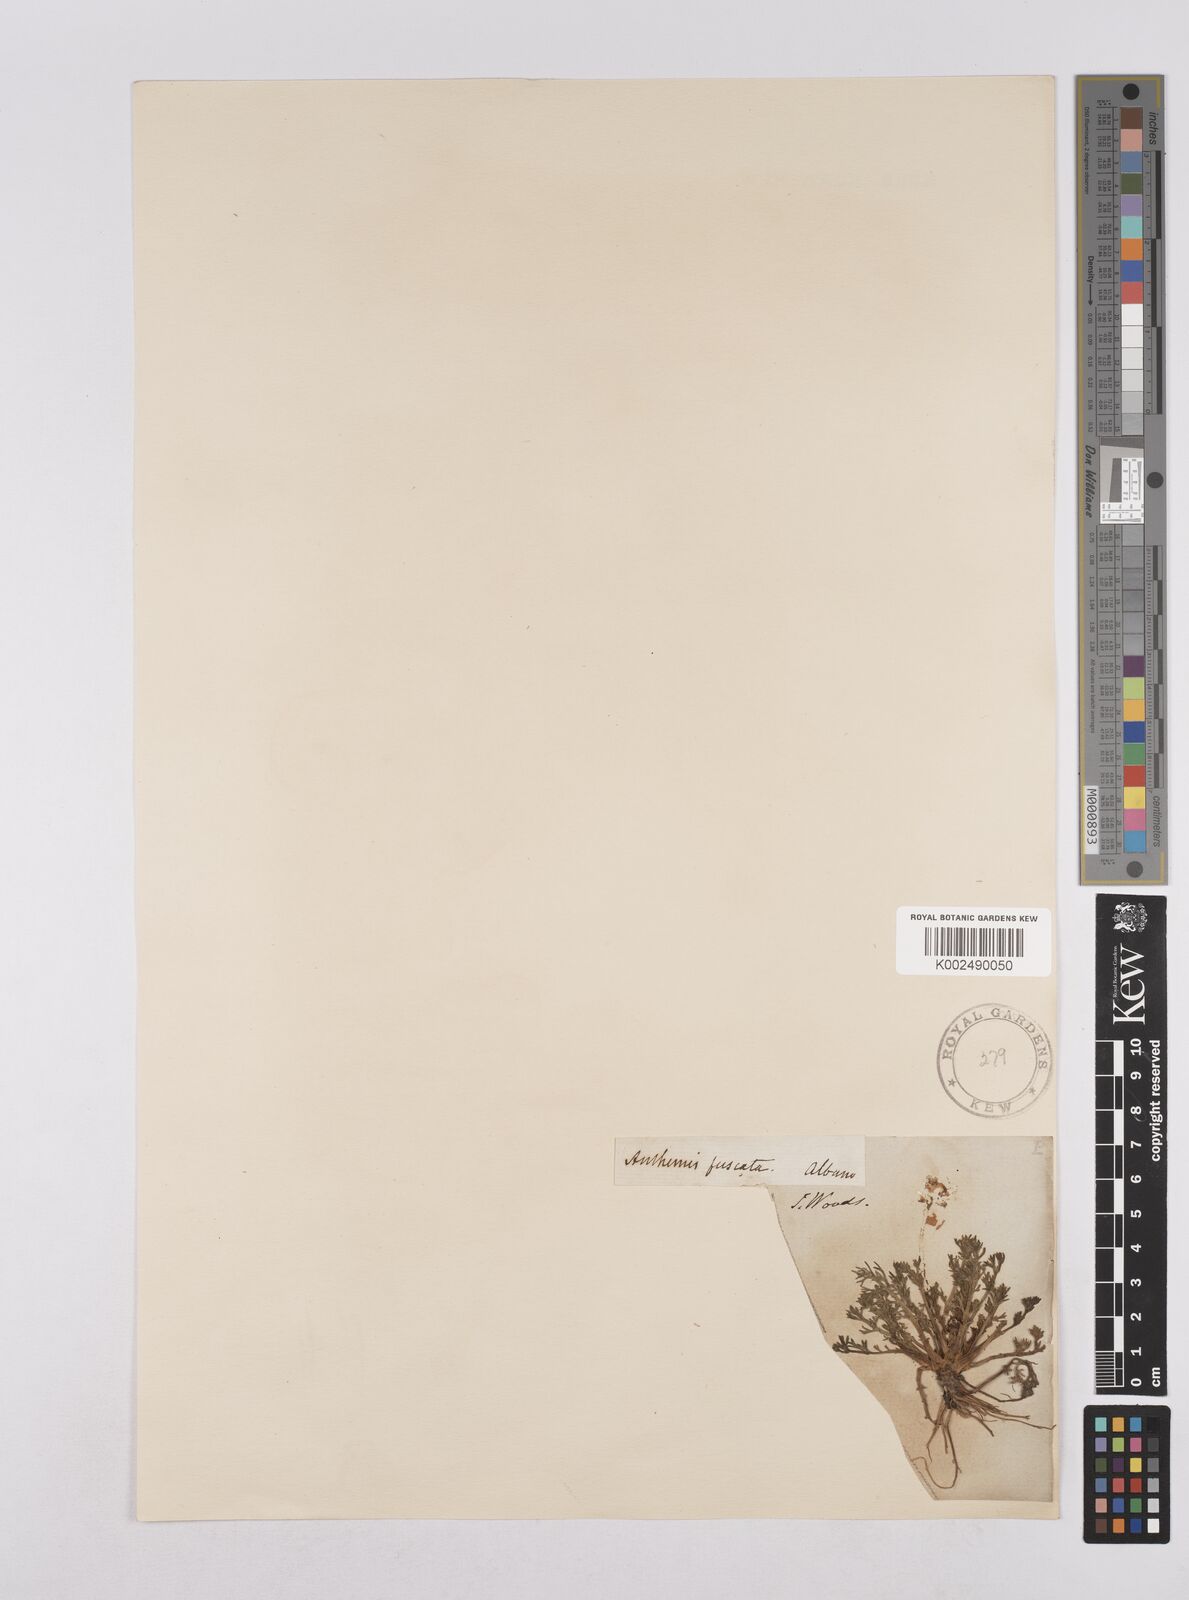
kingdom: Plantae
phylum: Tracheophyta
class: Magnoliopsida
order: Asterales
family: Asteraceae
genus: Chamaemelum
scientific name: Chamaemelum fuscatum
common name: Chamomile
